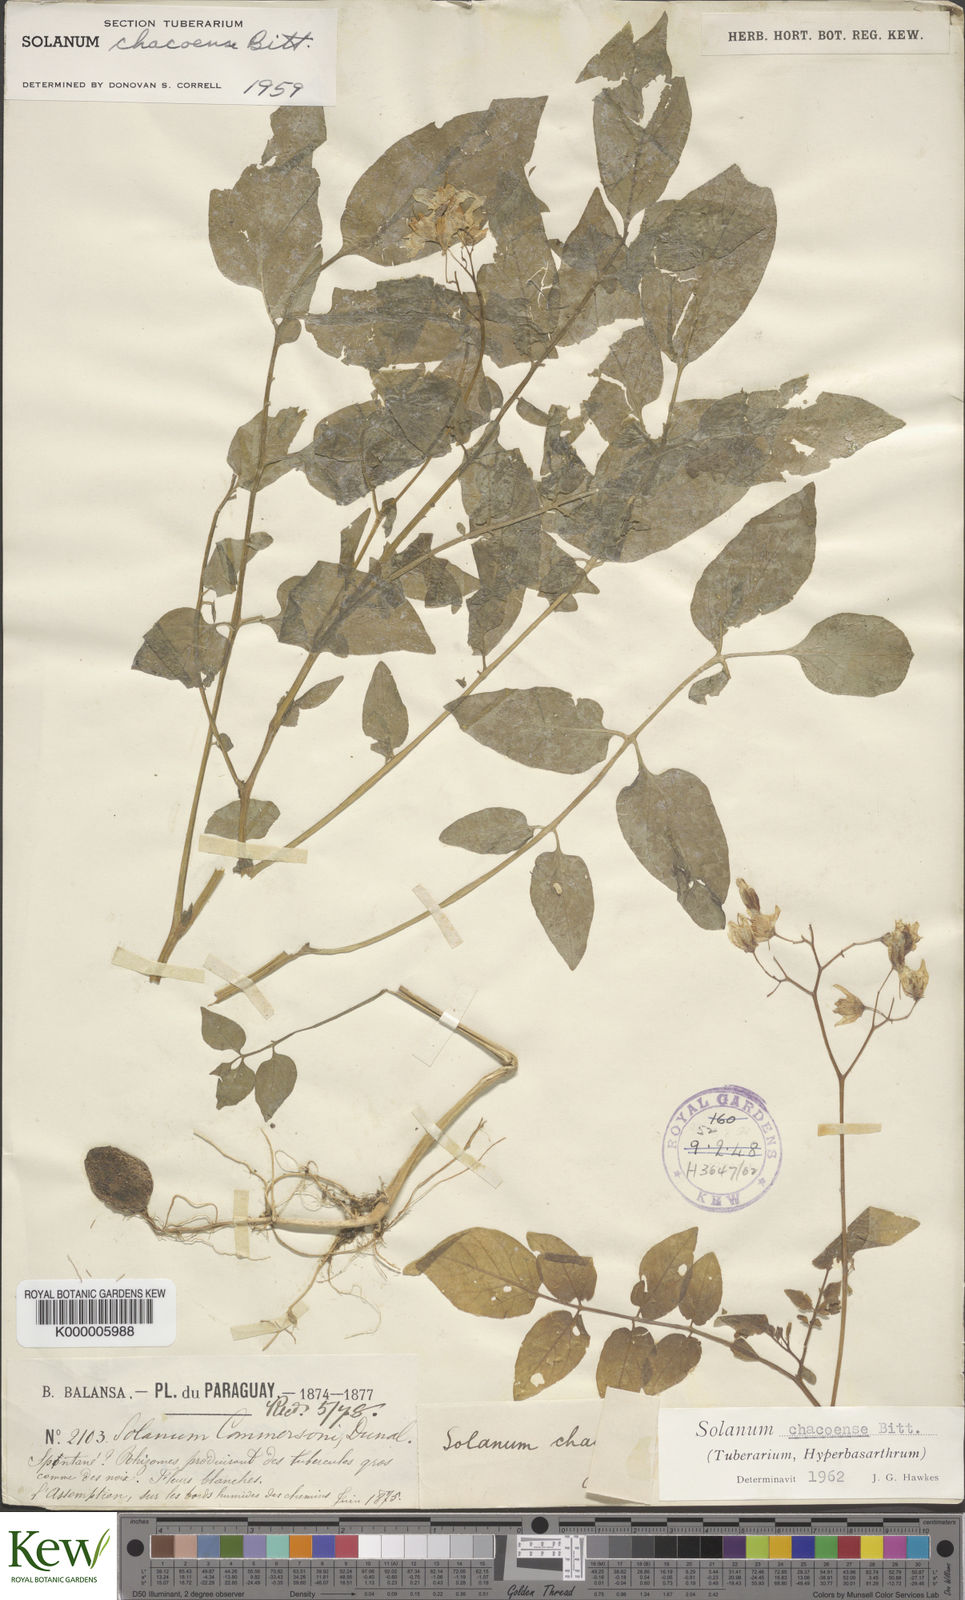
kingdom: Plantae
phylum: Tracheophyta
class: Magnoliopsida
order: Solanales
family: Solanaceae
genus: Solanum
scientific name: Solanum chacoense
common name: Chaco potato
